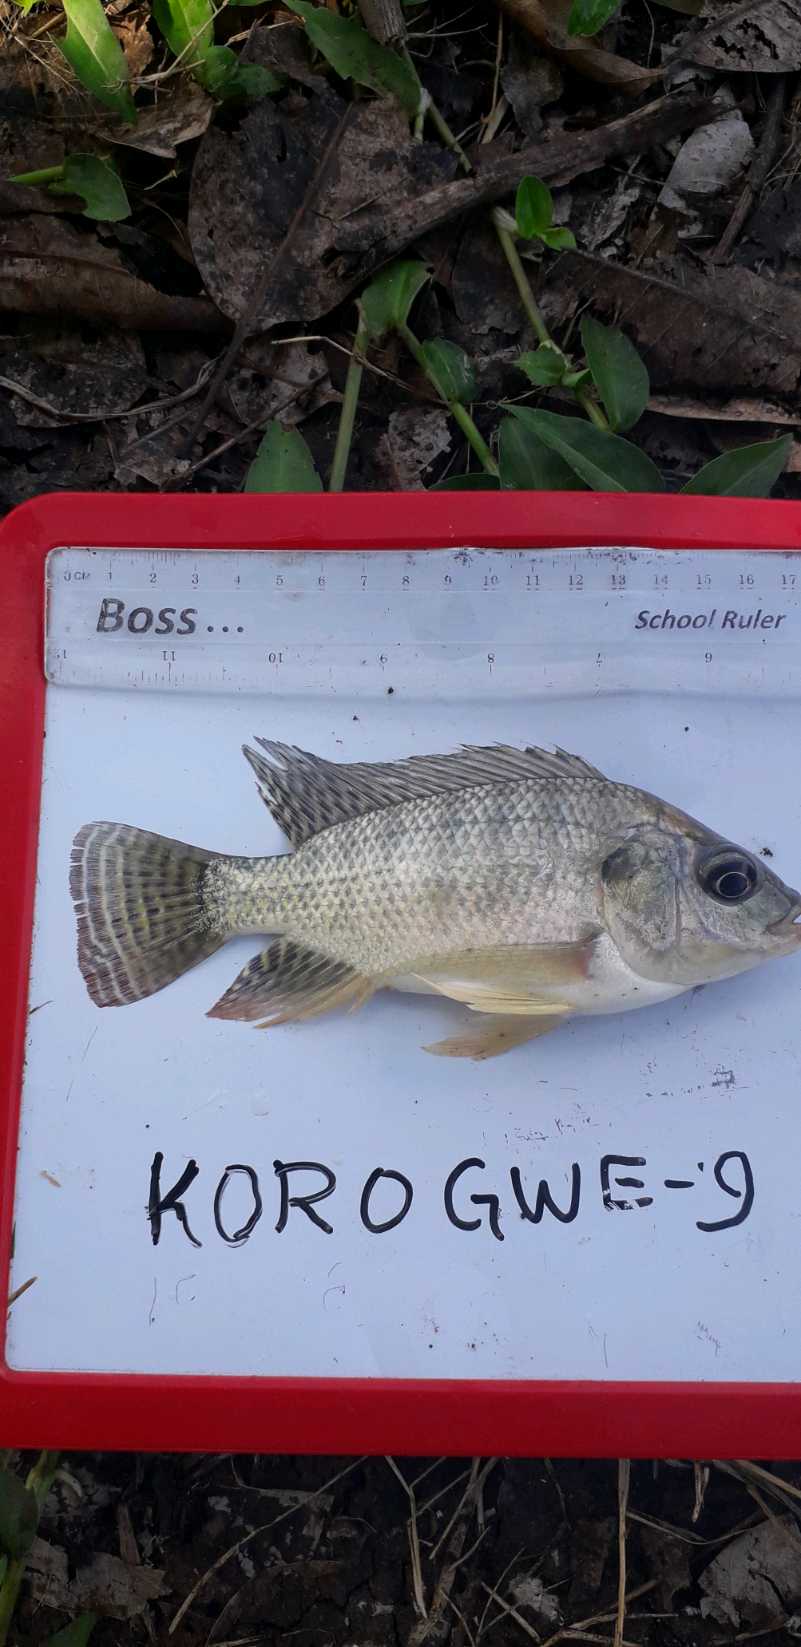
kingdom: Animalia
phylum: Chordata
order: Perciformes
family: Cichlidae
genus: Oreochromis
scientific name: Oreochromis niloticus
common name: Nile tilapia
